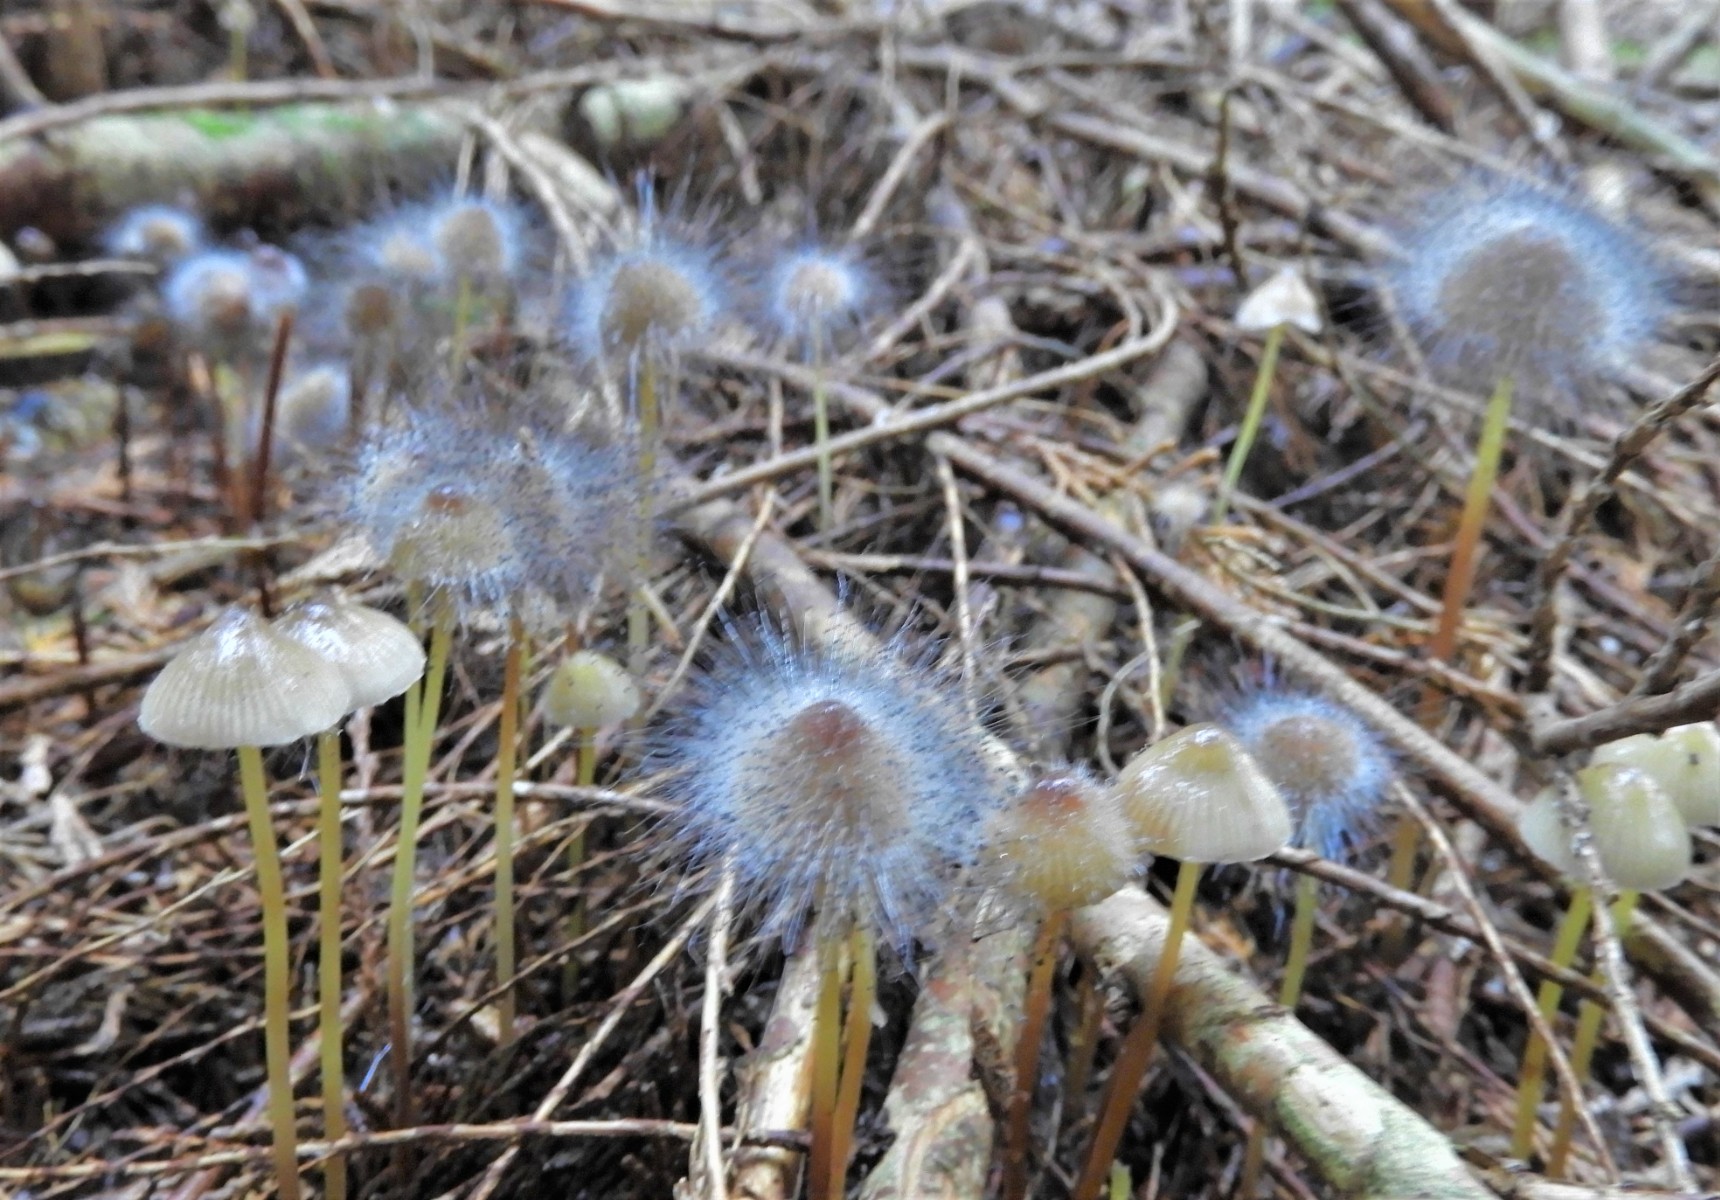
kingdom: Fungi
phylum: Mucoromycota
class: Mucoromycetes
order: Mucorales
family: Phycomycetaceae
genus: Spinellus
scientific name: Spinellus fusiger
